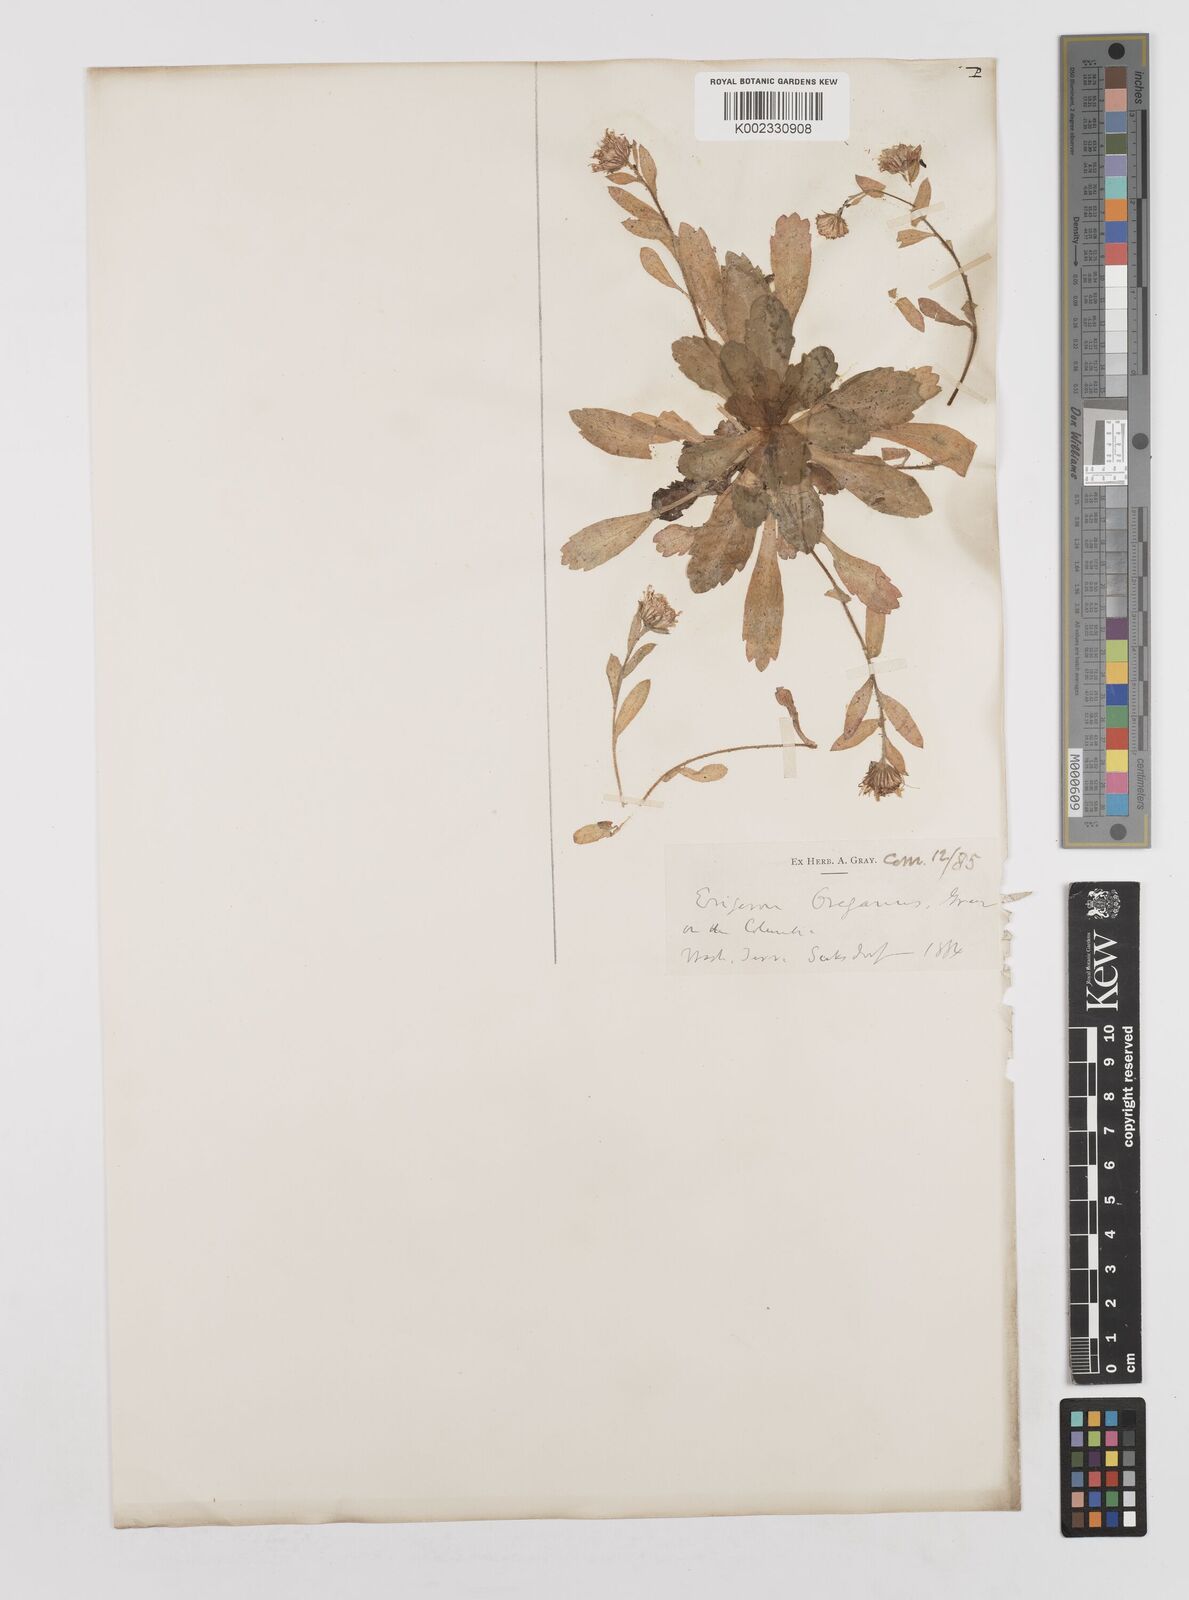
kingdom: Plantae
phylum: Tracheophyta
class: Magnoliopsida
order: Asterales
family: Asteraceae
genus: Erigeron
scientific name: Erigeron oreganus
